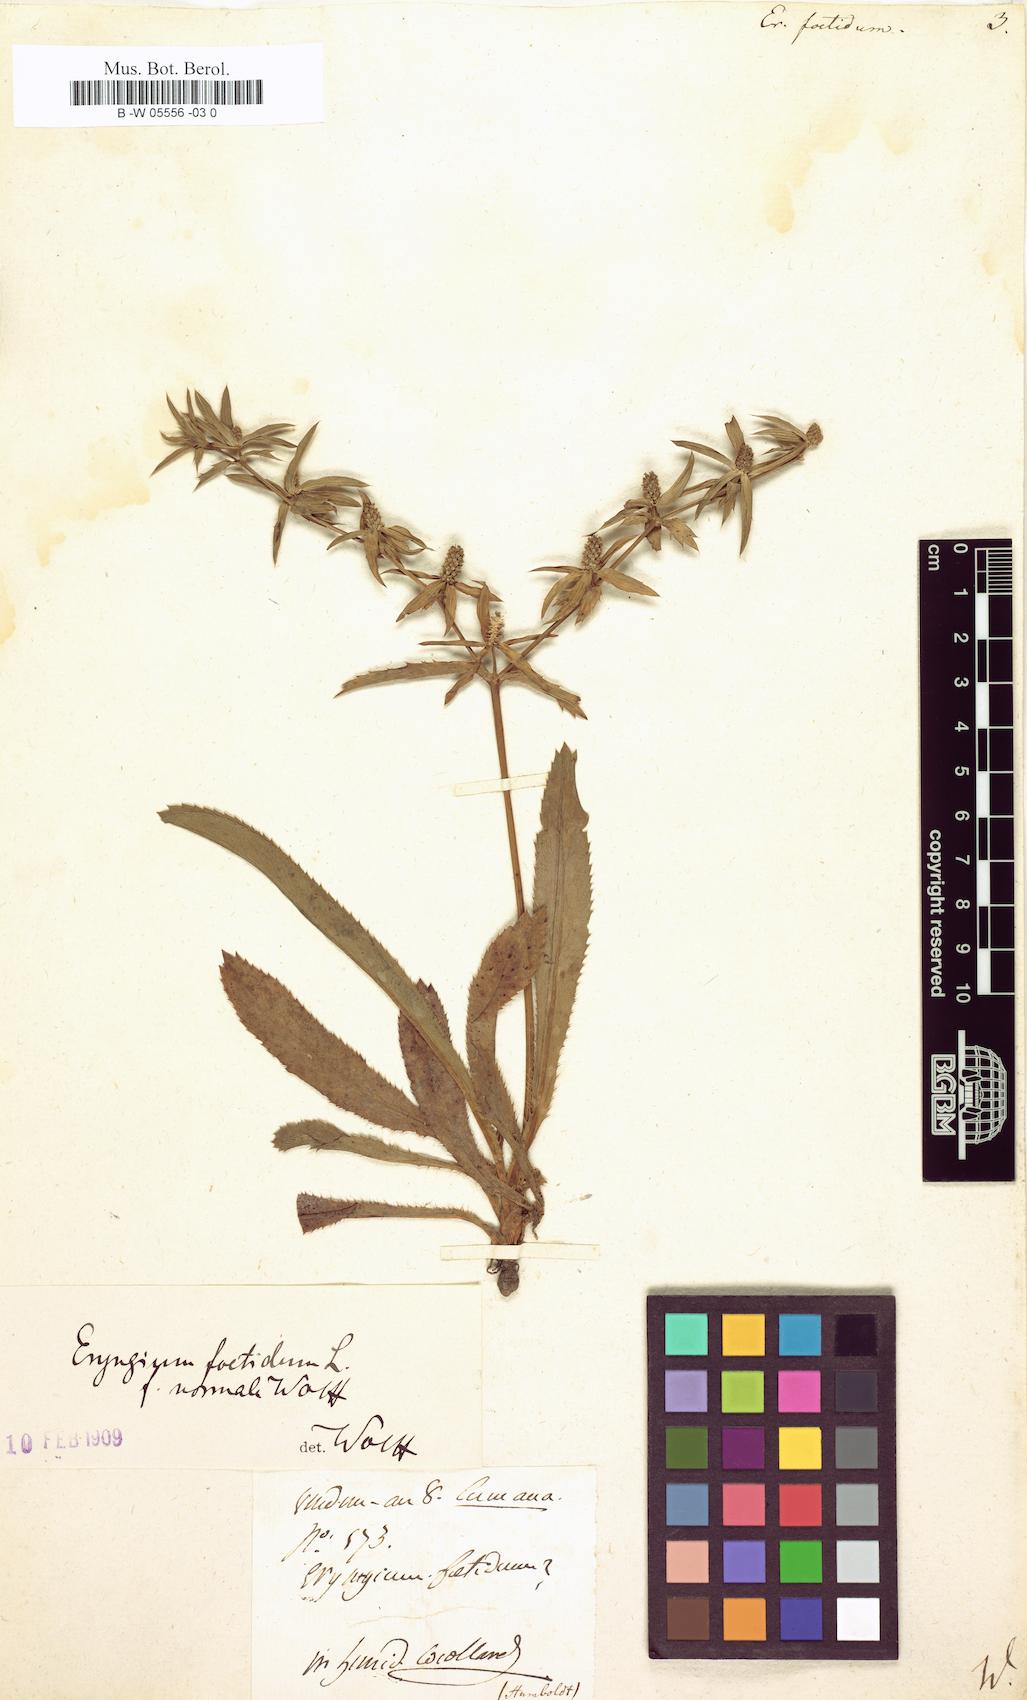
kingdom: Plantae
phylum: Tracheophyta
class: Magnoliopsida
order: Apiales
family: Apiaceae
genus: Eryngium
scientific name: Eryngium foetidum
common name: Fitweed
